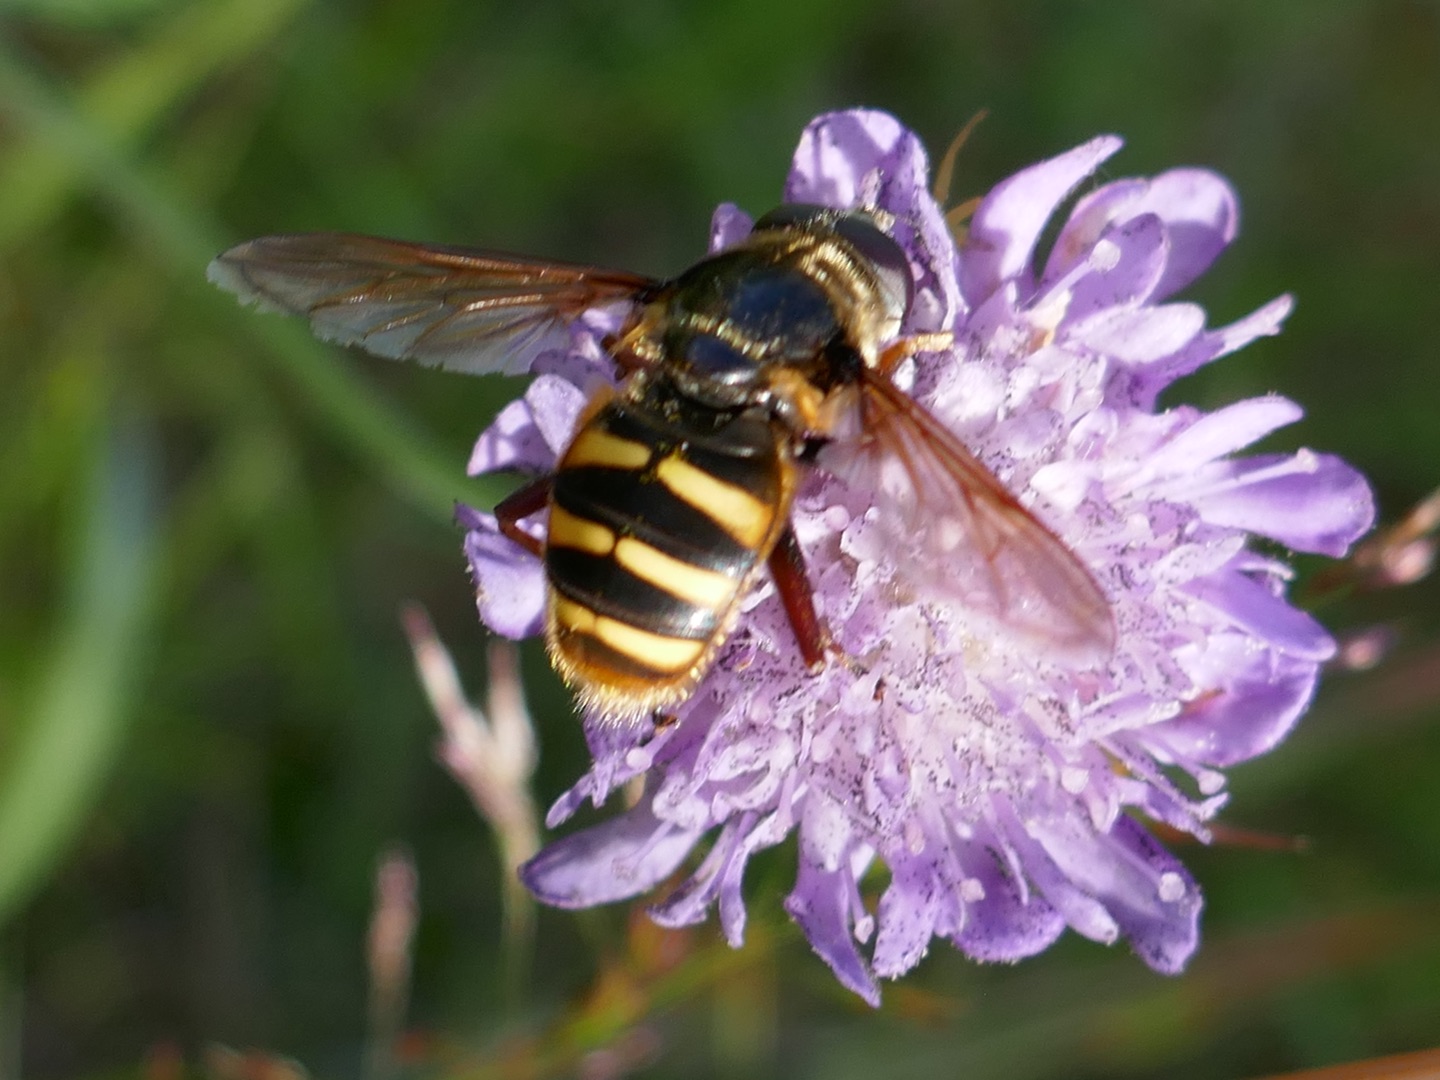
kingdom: Animalia
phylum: Arthropoda
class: Insecta
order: Diptera
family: Syrphidae
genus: Sericomyia
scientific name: Sericomyia silentis
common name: Tørve-silkesvirreflue
